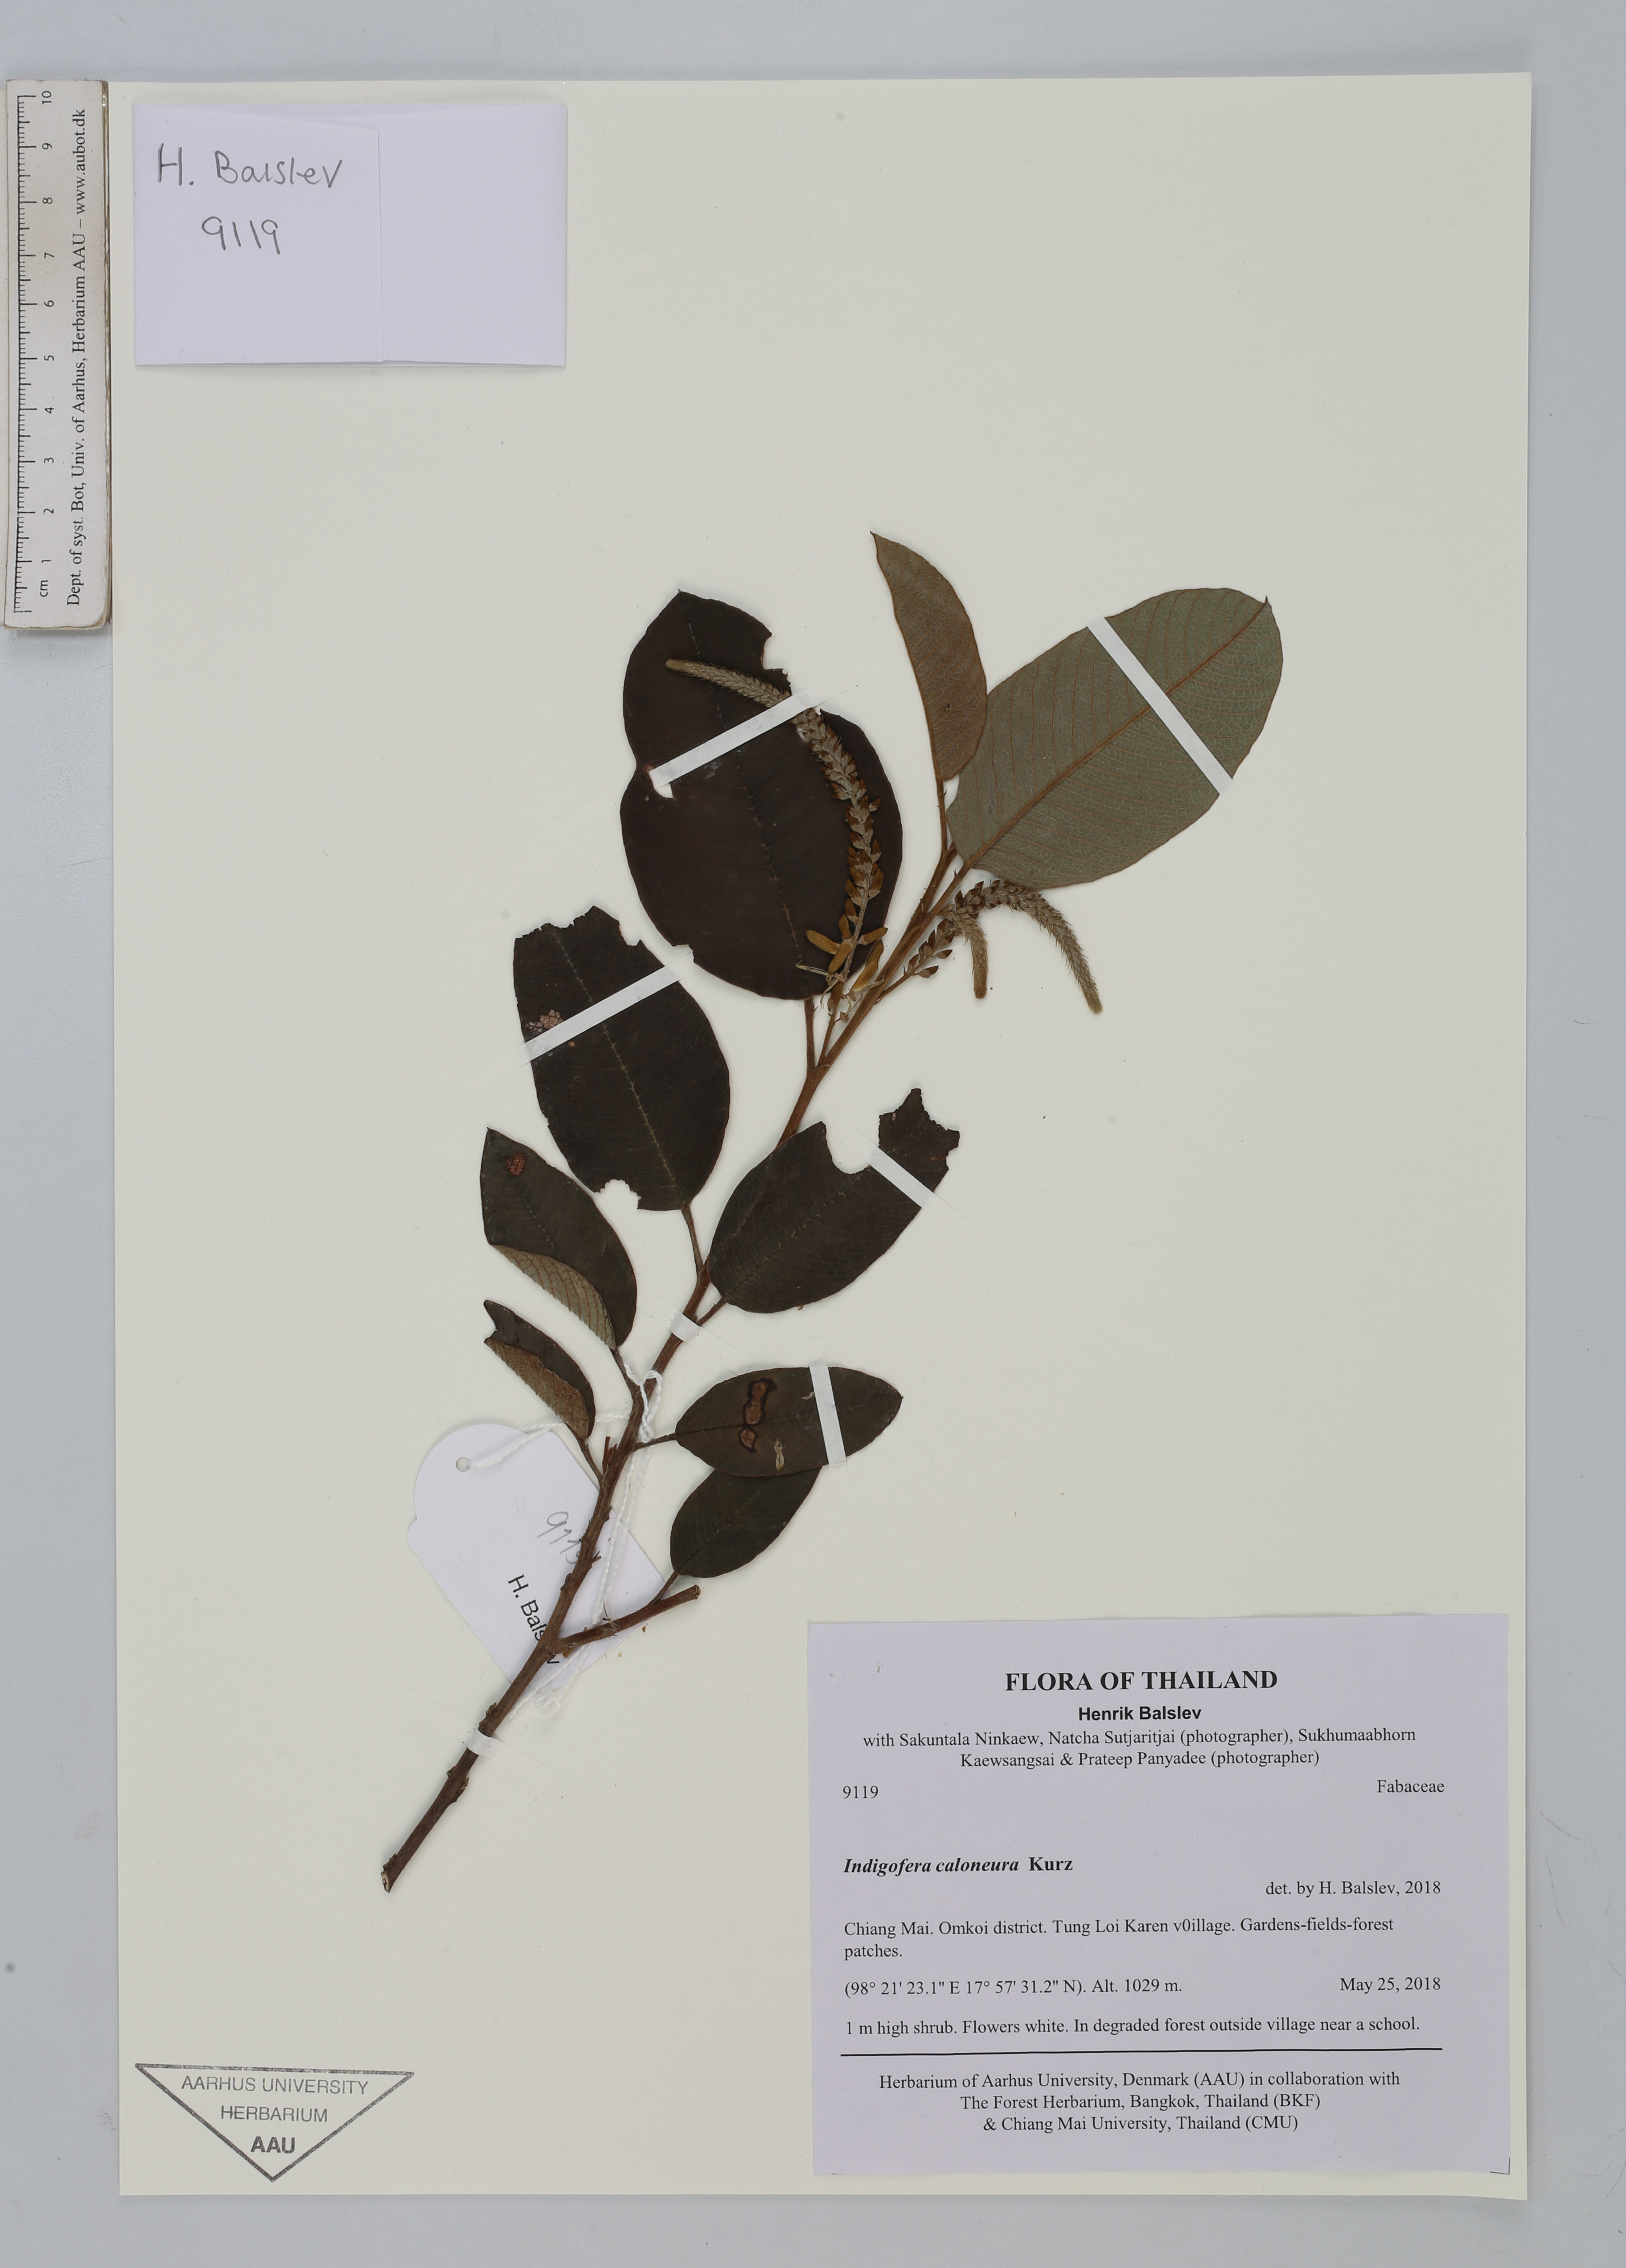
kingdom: Plantae
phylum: Tracheophyta
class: Magnoliopsida
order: Fabales
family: Fabaceae
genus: Indigofera
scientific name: Indigofera caloneura
